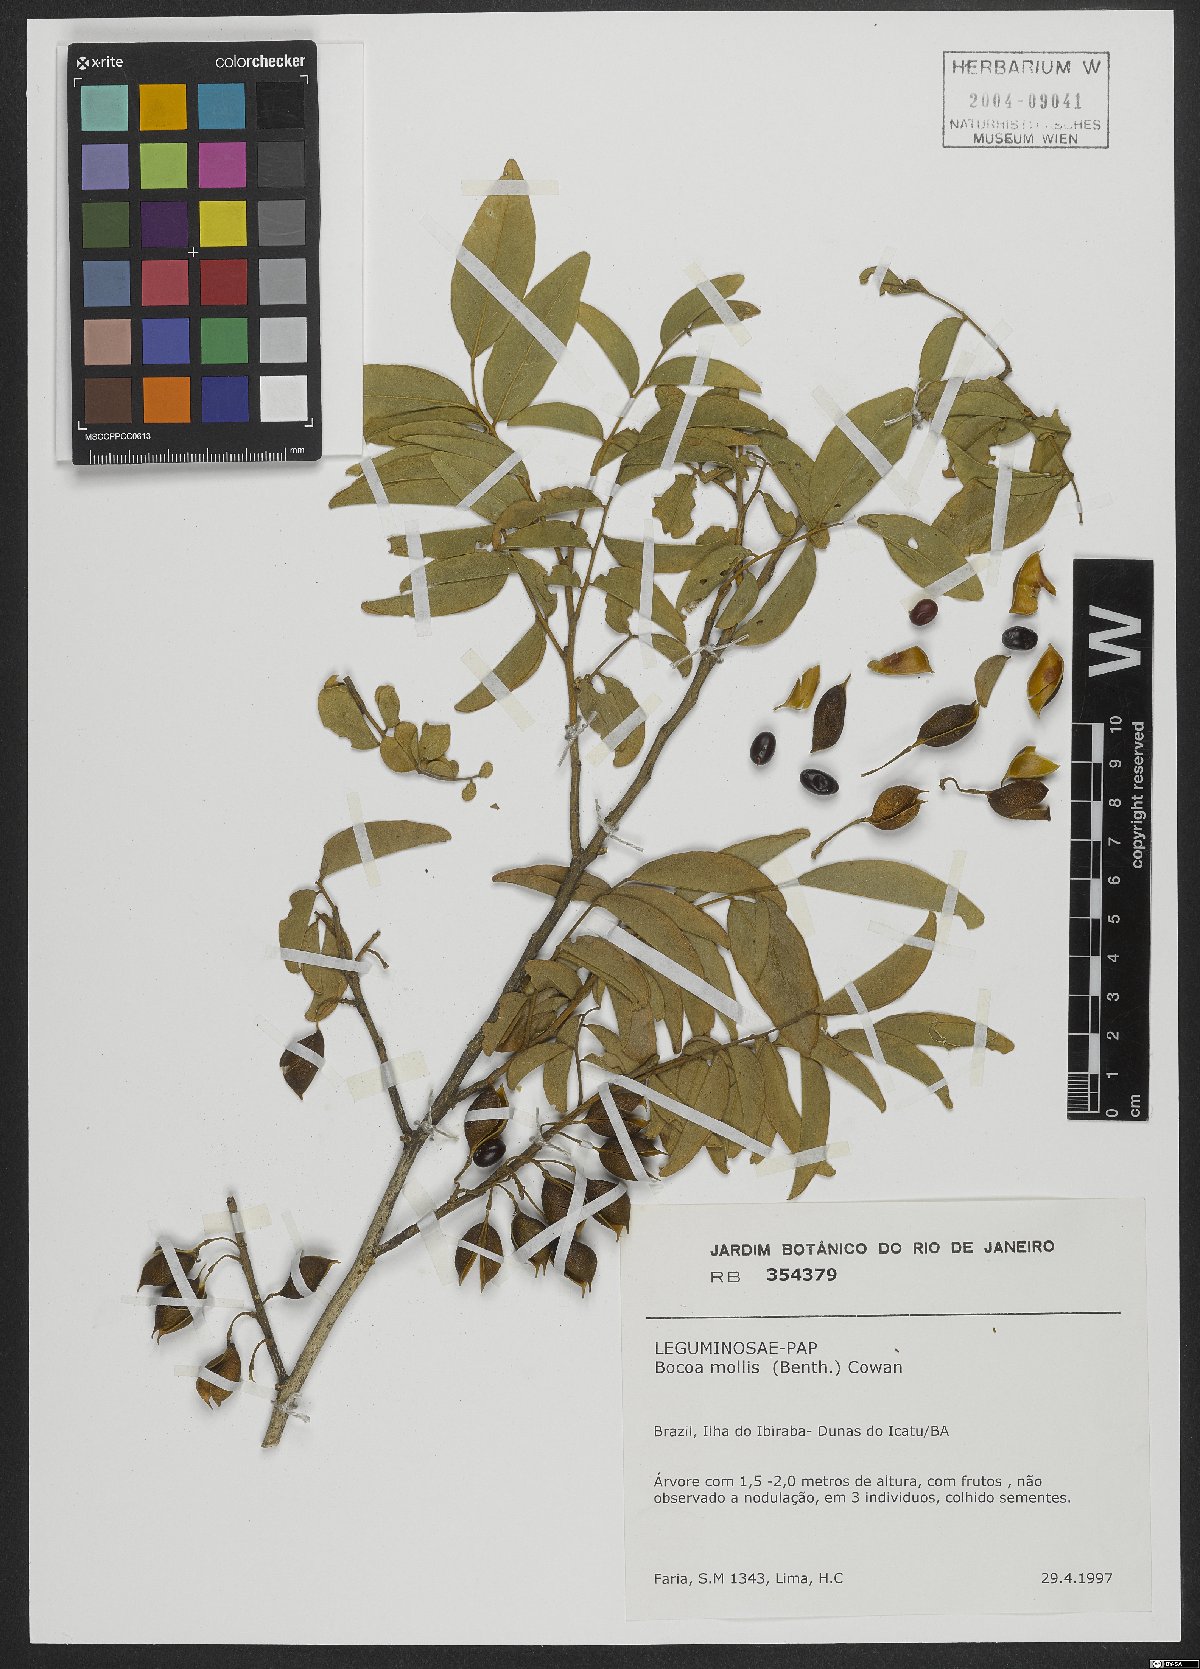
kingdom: Plantae
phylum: Tracheophyta
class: Magnoliopsida
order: Fabales
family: Fabaceae
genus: Trischidium
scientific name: Trischidium molle
